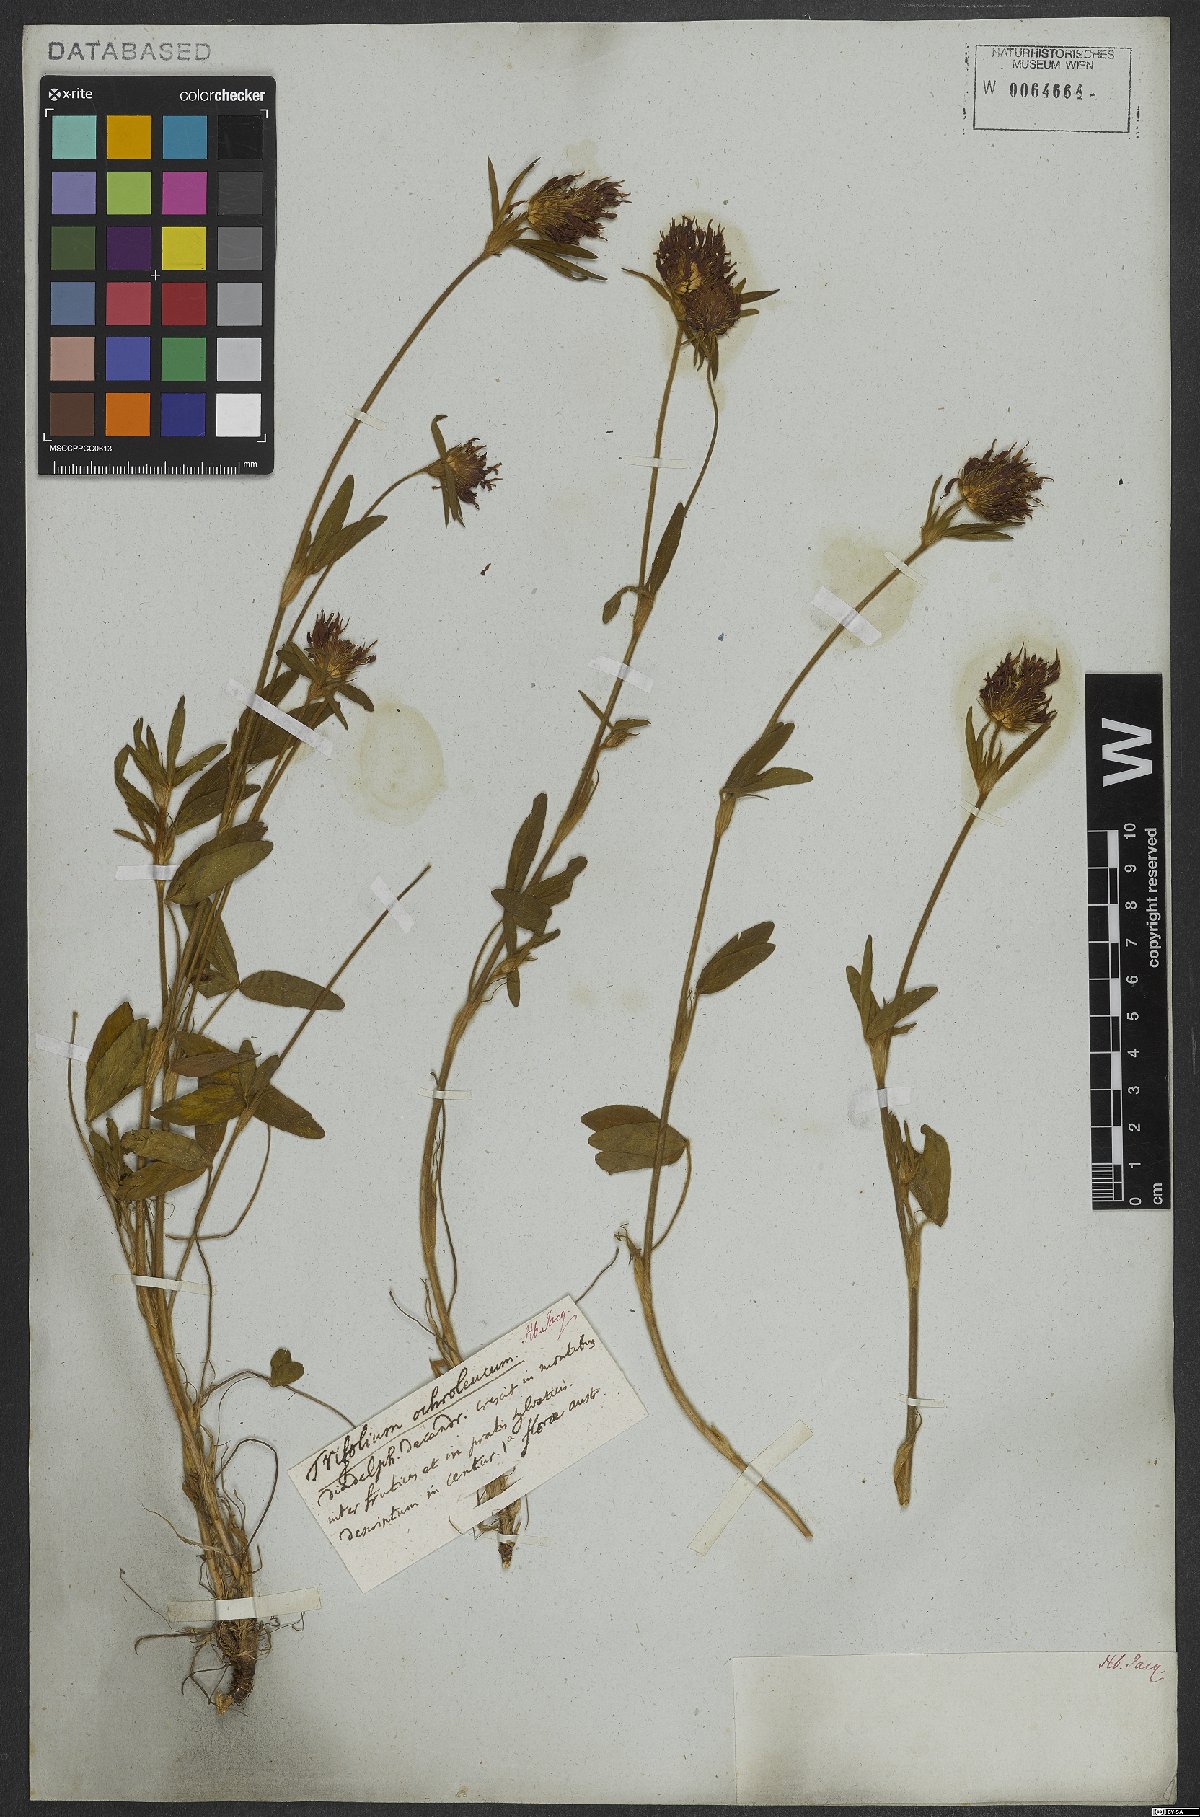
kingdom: Plantae
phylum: Tracheophyta
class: Magnoliopsida
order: Fabales
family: Fabaceae
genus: Trifolium
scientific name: Trifolium ochroleucon
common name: Sulphur clover
